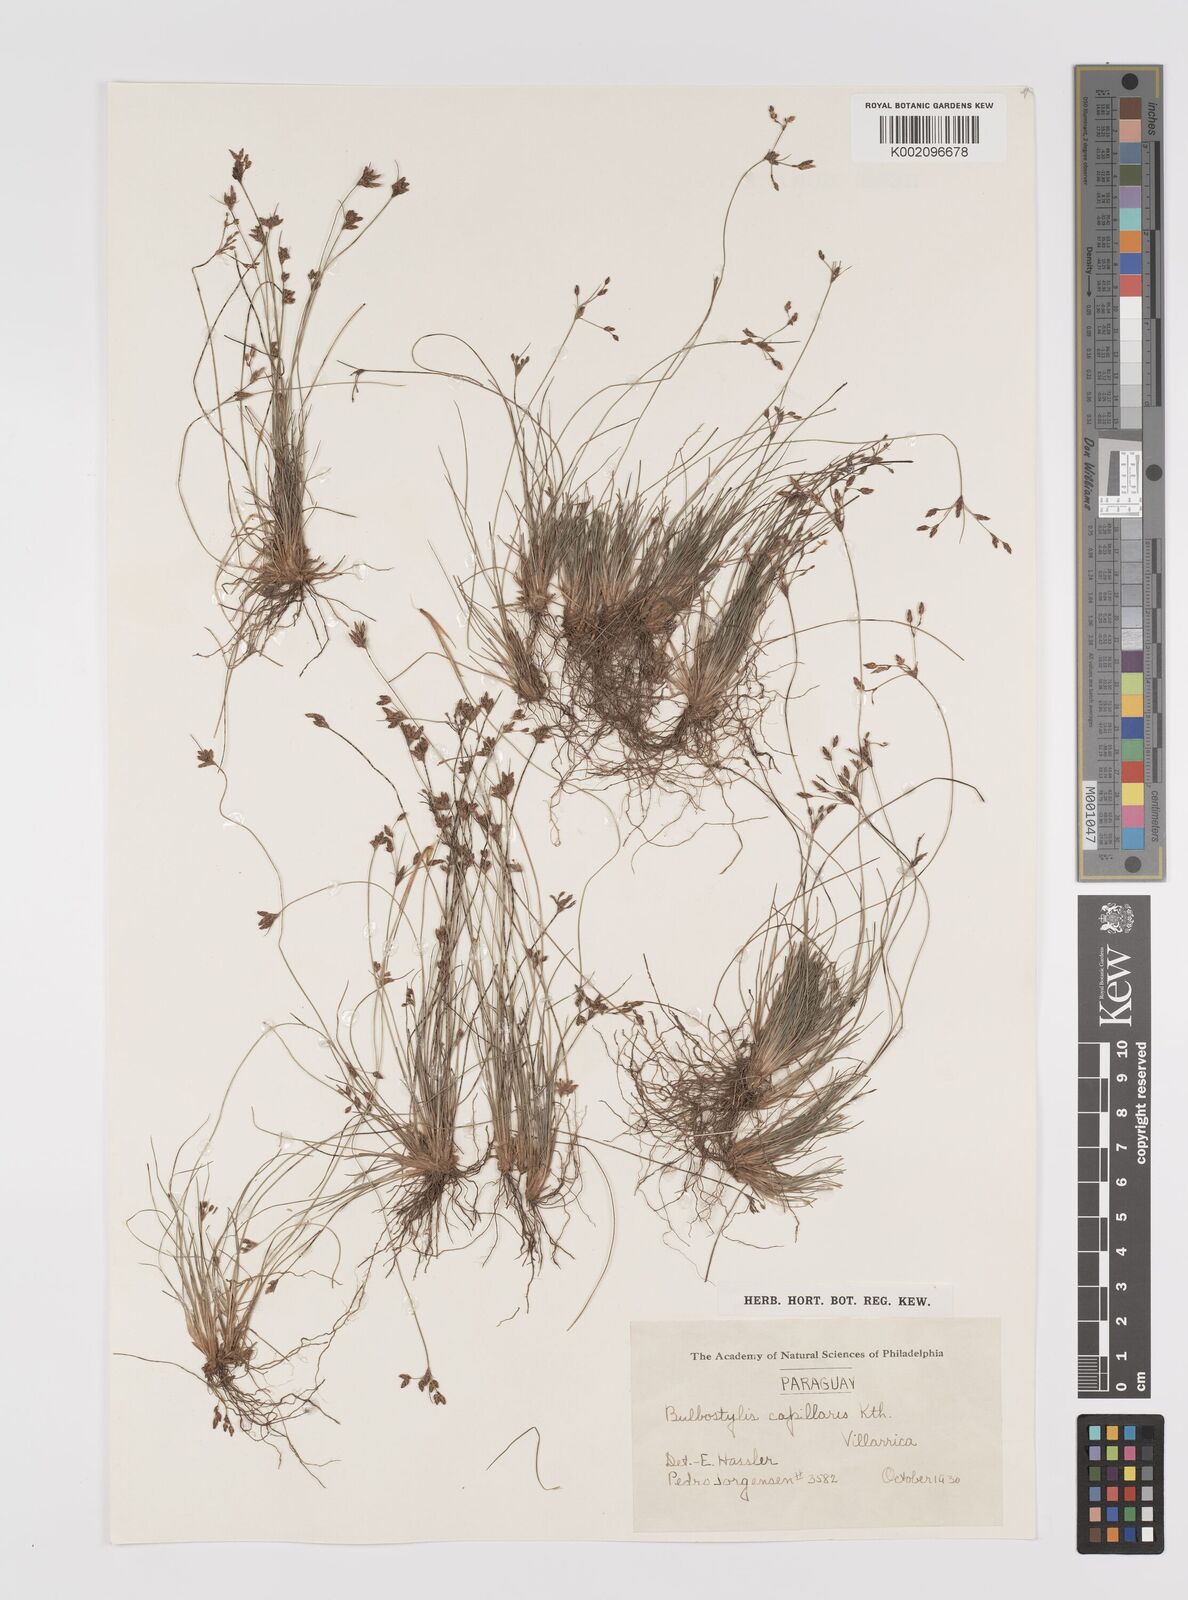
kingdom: Plantae
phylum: Tracheophyta
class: Liliopsida
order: Poales
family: Cyperaceae
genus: Bulbostylis
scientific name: Bulbostylis capillaris
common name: Densetuft hairsedge
